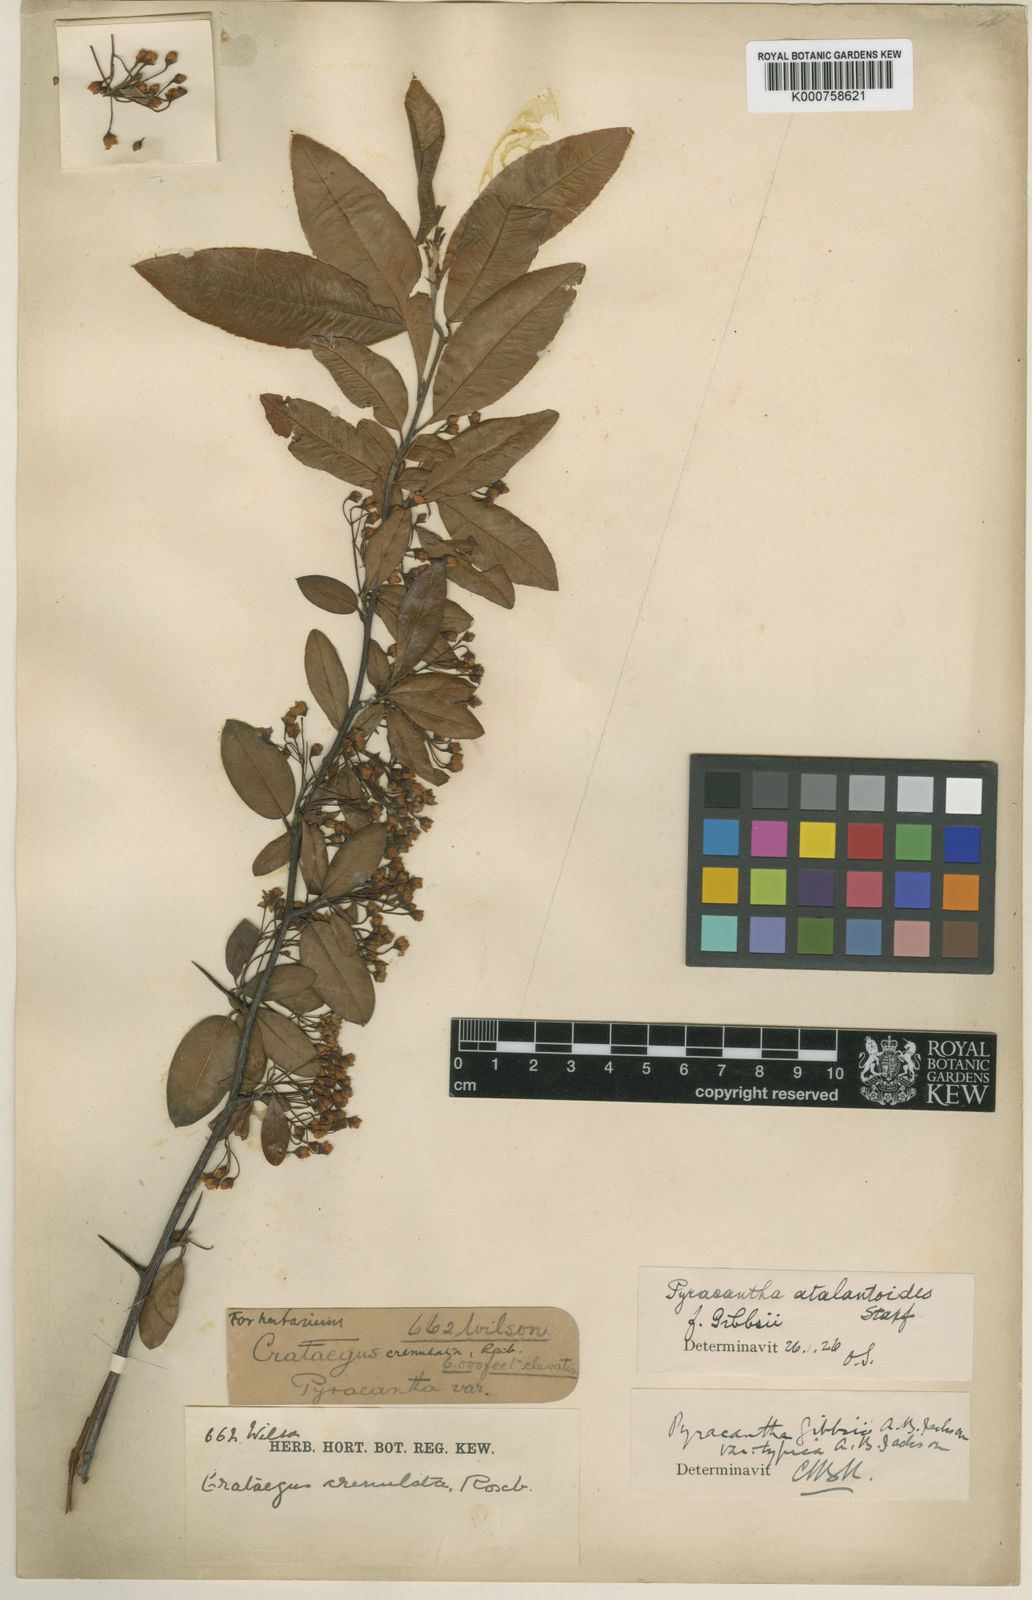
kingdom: Plantae
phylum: Tracheophyta
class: Magnoliopsida
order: Rosales
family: Rosaceae
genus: Pyracantha
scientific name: Pyracantha atalantioides
